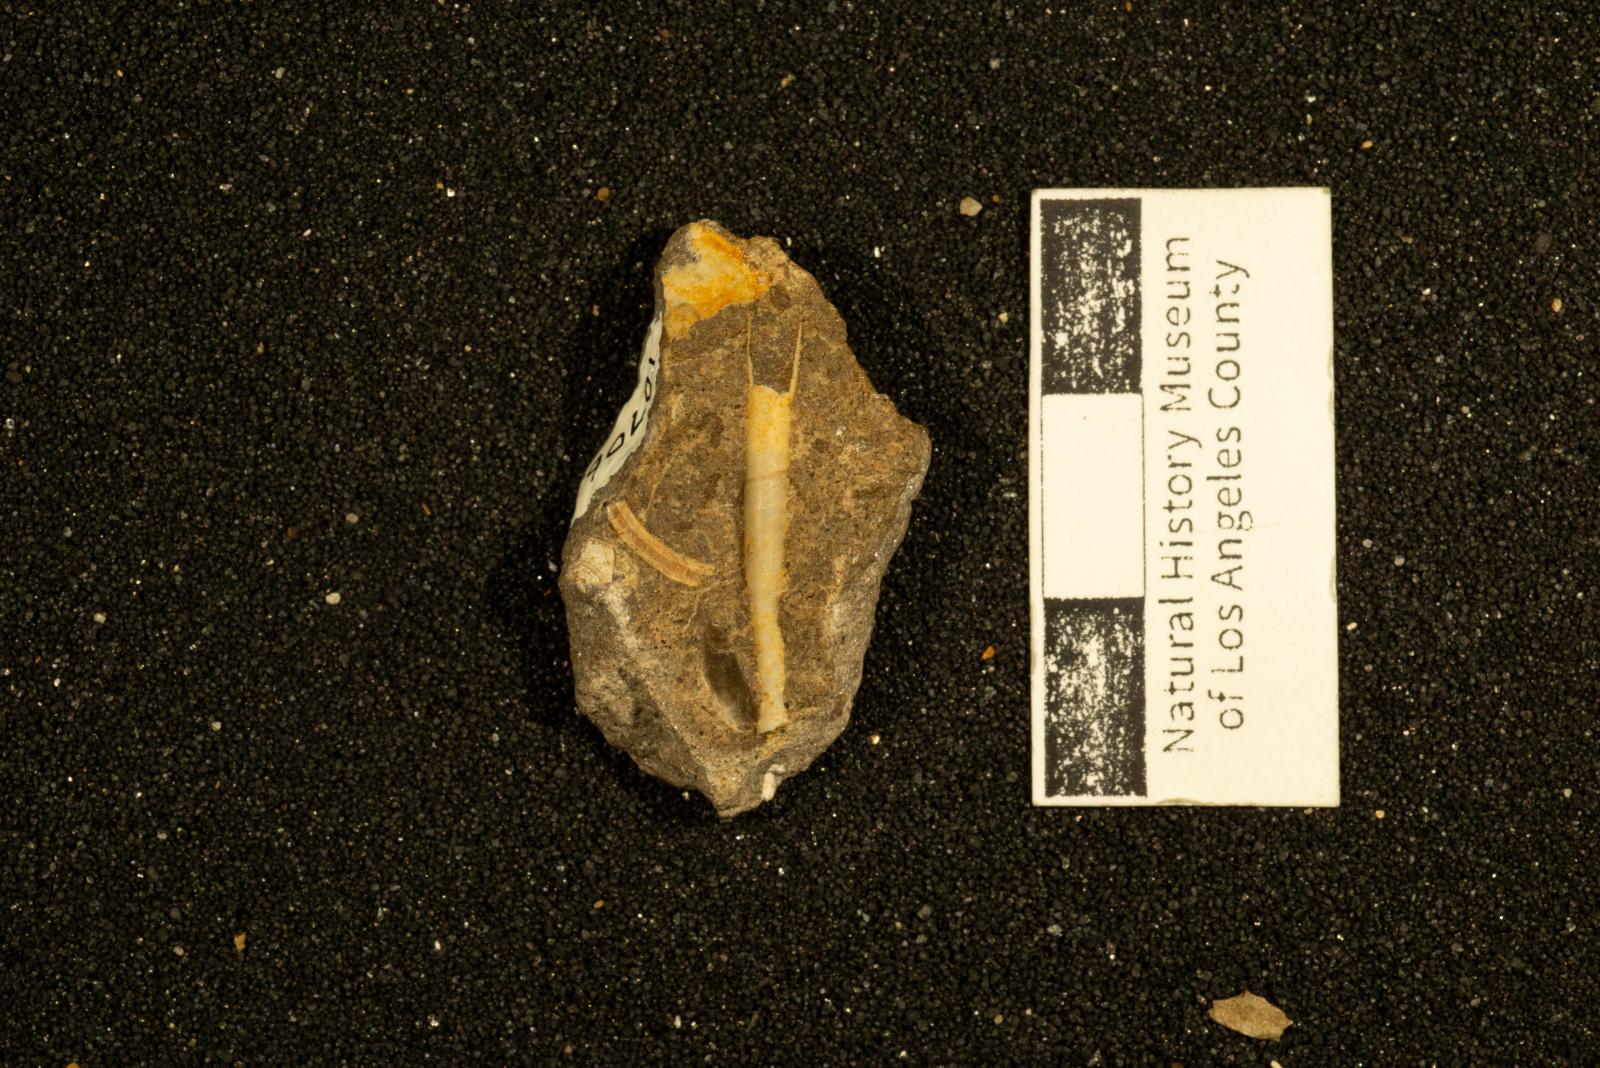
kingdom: Animalia
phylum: Mollusca
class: Scaphopoda
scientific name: Scaphopoda
